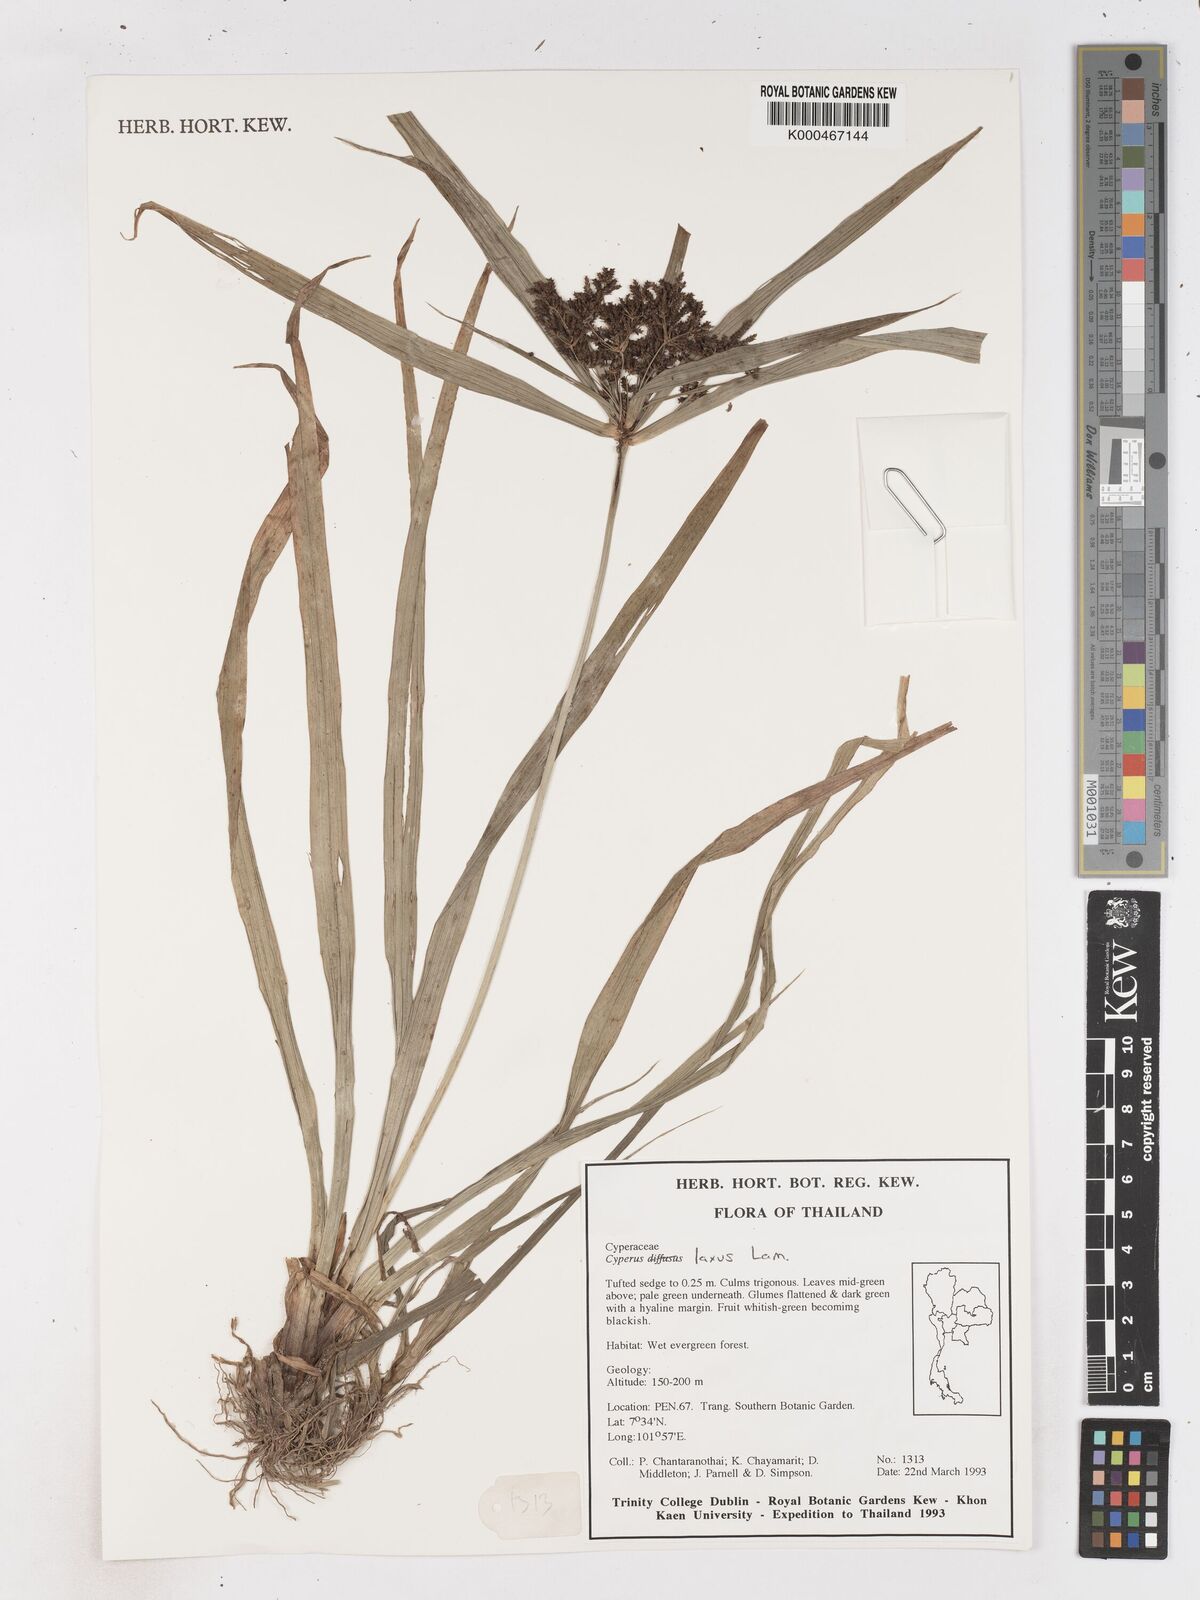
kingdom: Plantae
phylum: Tracheophyta
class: Liliopsida
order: Poales
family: Cyperaceae
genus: Cyperus
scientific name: Cyperus diffusus
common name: Dwarf umbrella grass
